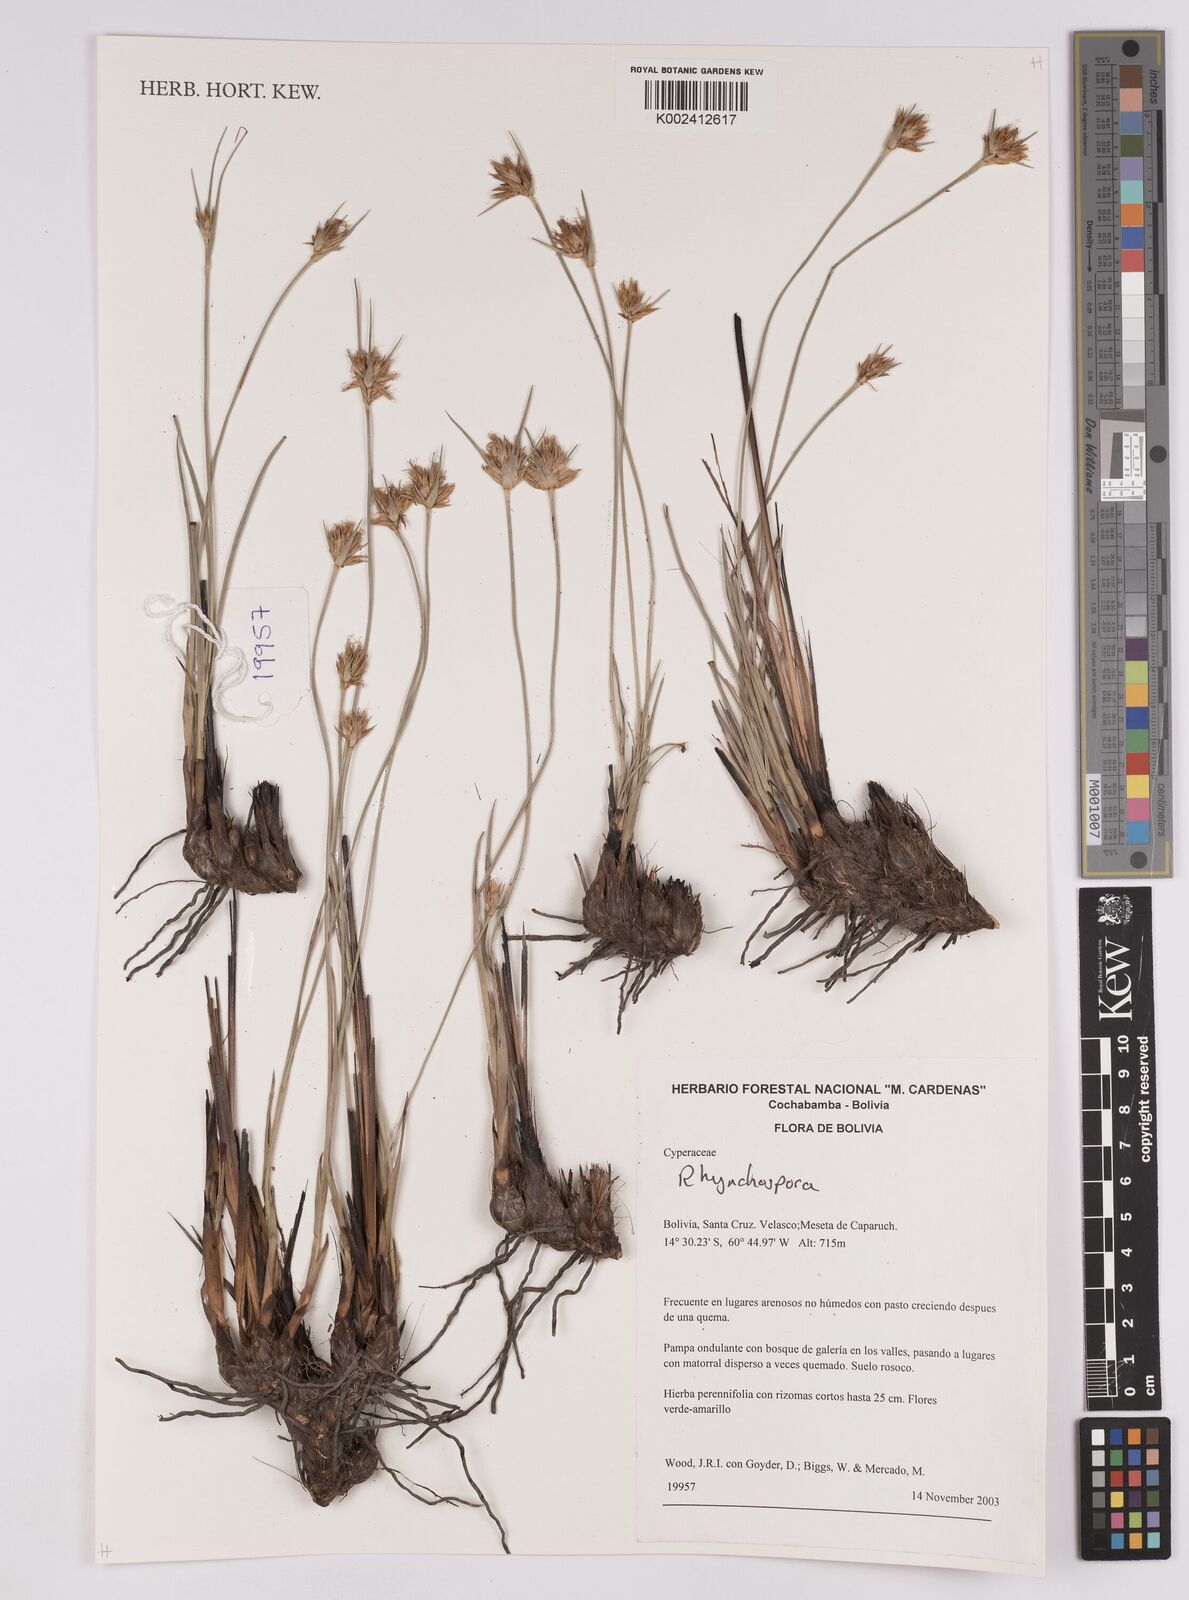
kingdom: Plantae
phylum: Tracheophyta
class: Liliopsida
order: Poales
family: Cyperaceae
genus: Rhynchospora
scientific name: Rhynchospora
